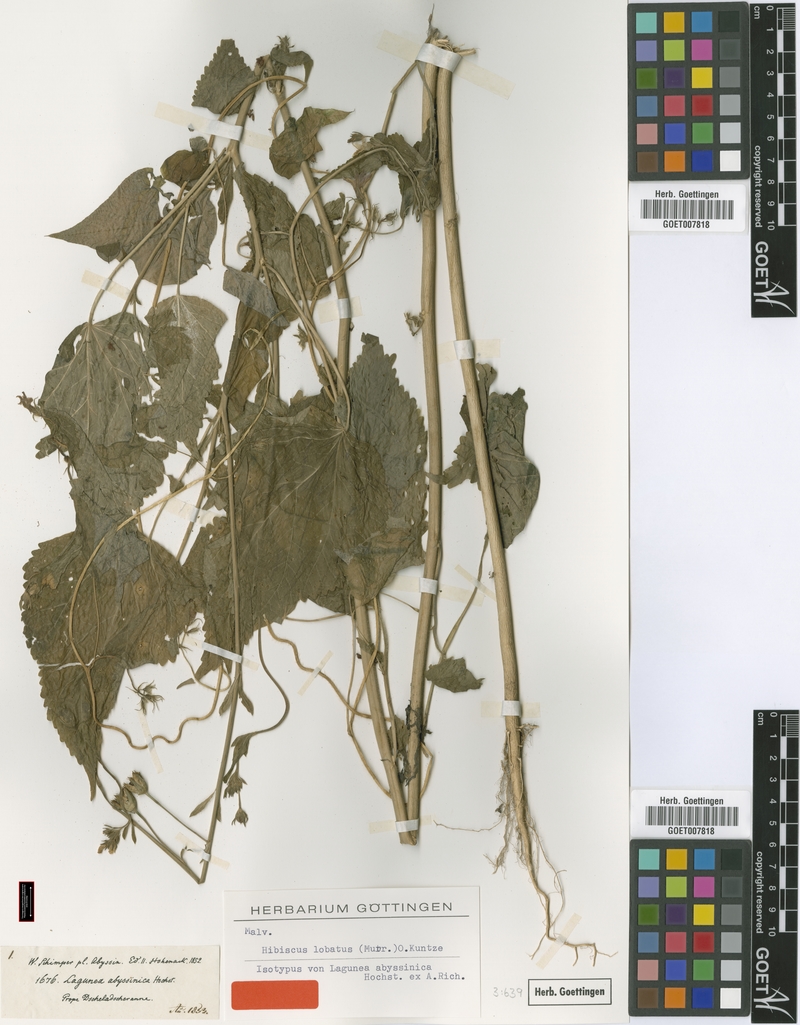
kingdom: Plantae
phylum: Tracheophyta
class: Magnoliopsida
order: Malvales
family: Malvaceae
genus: Hibiscus
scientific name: Hibiscus lobatus
